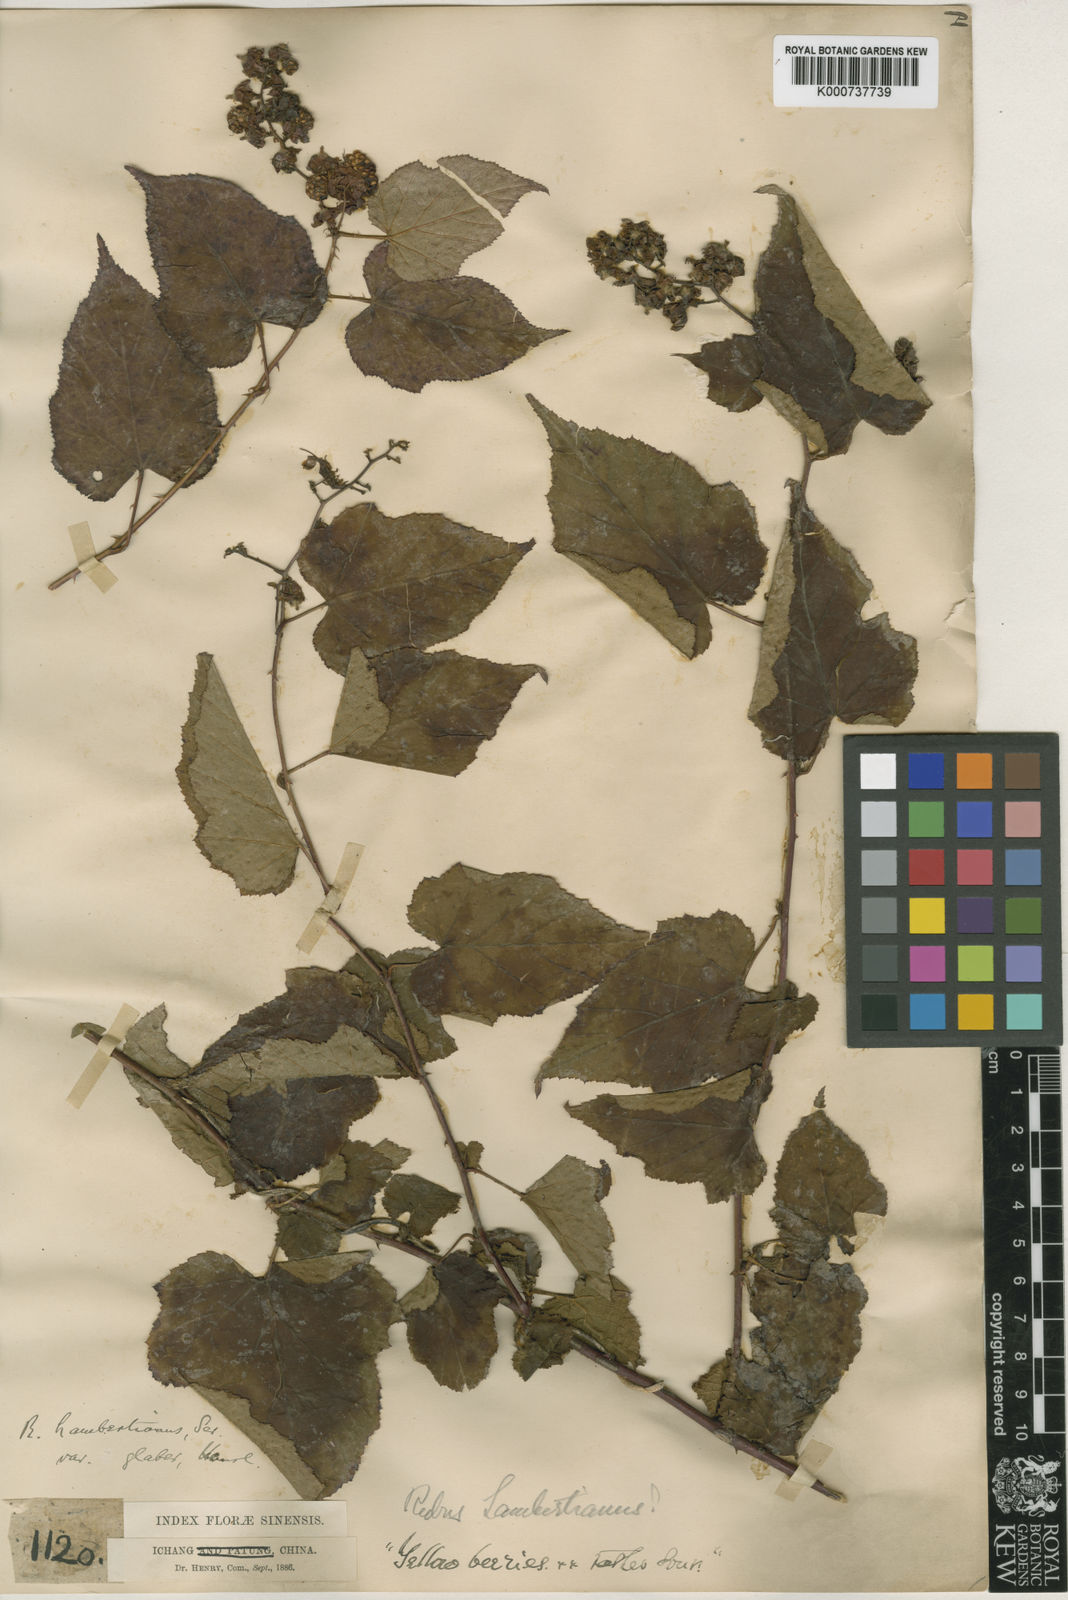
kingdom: Plantae
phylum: Tracheophyta
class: Magnoliopsida
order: Rosales
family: Rosaceae
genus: Rubus
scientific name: Rubus lambertianus
